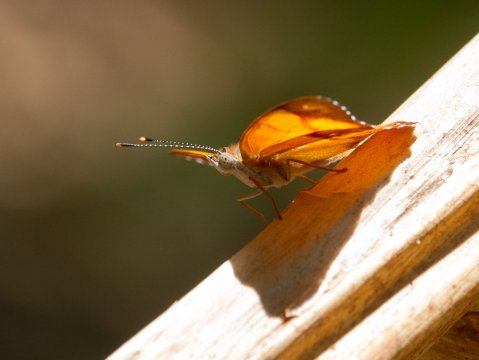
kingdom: Animalia
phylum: Arthropoda
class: Insecta
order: Lepidoptera
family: Nymphalidae
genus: Nica
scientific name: Nica flavilla
